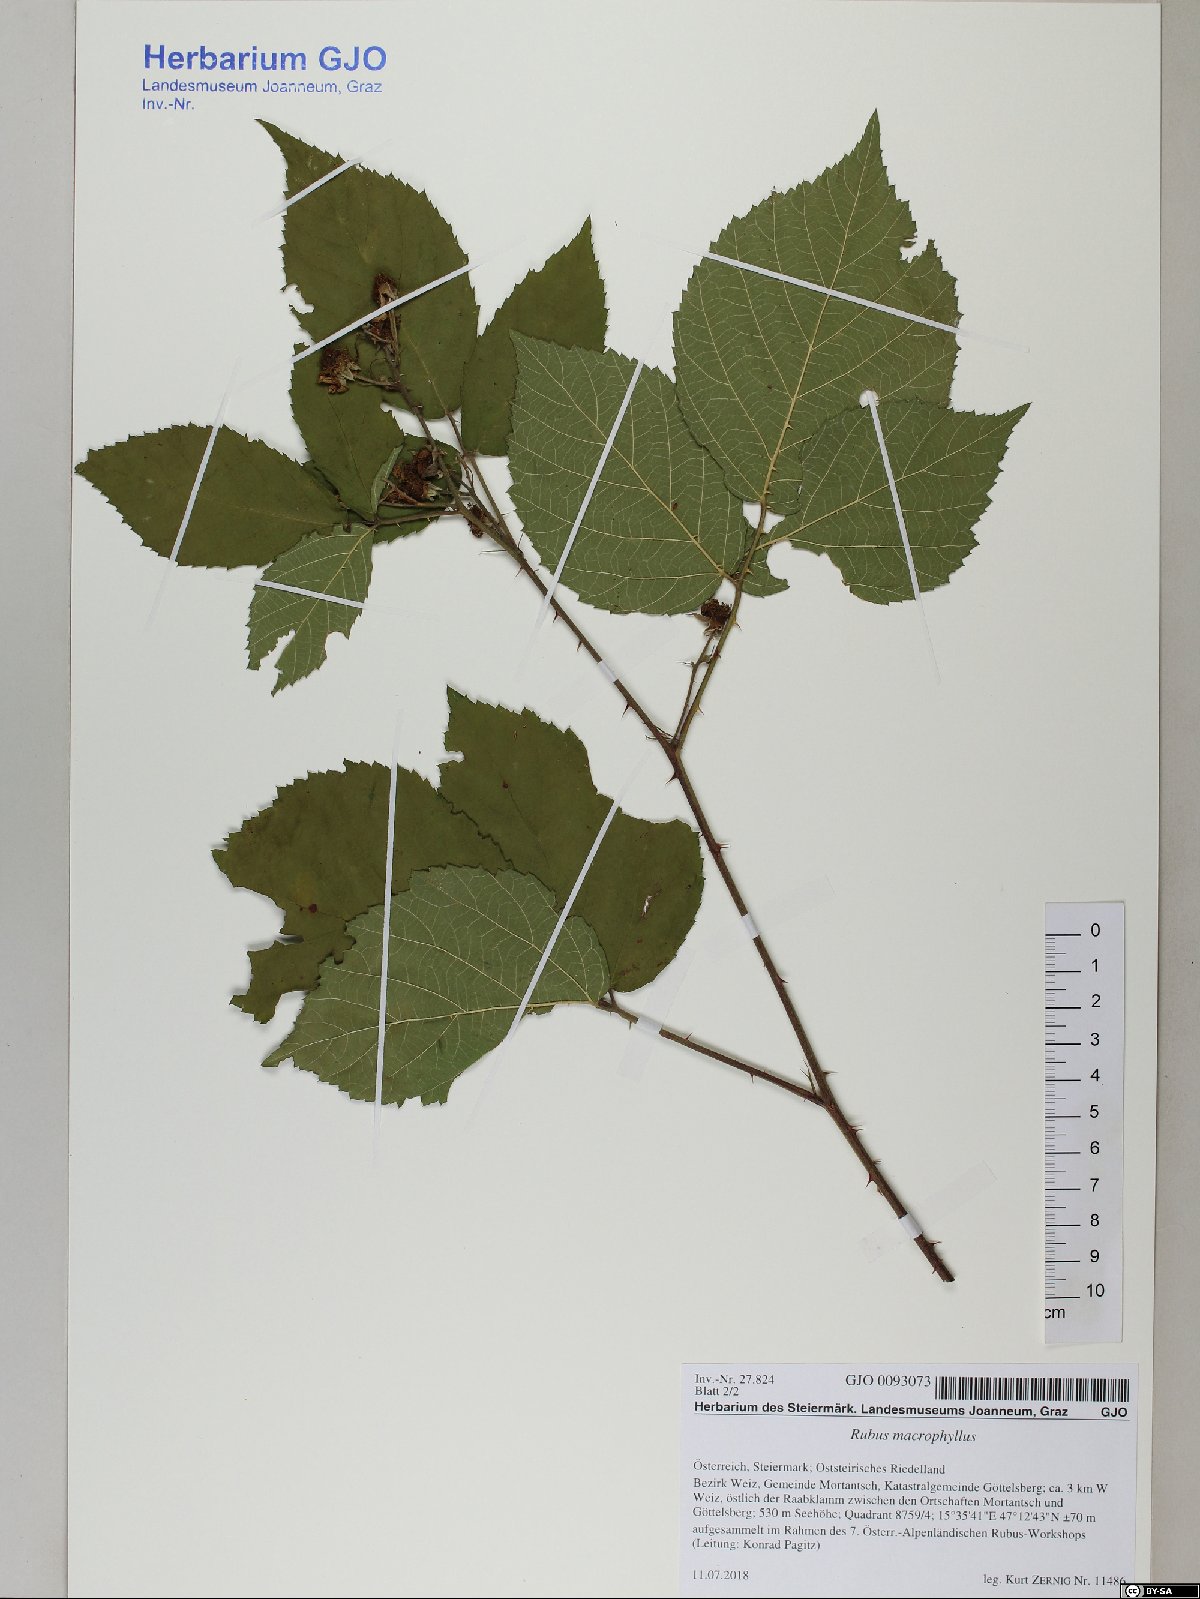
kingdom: Plantae
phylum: Tracheophyta
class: Magnoliopsida
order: Rosales
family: Rosaceae
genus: Rubus
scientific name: Rubus macrophyllus
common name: Largeleaf blackberry
